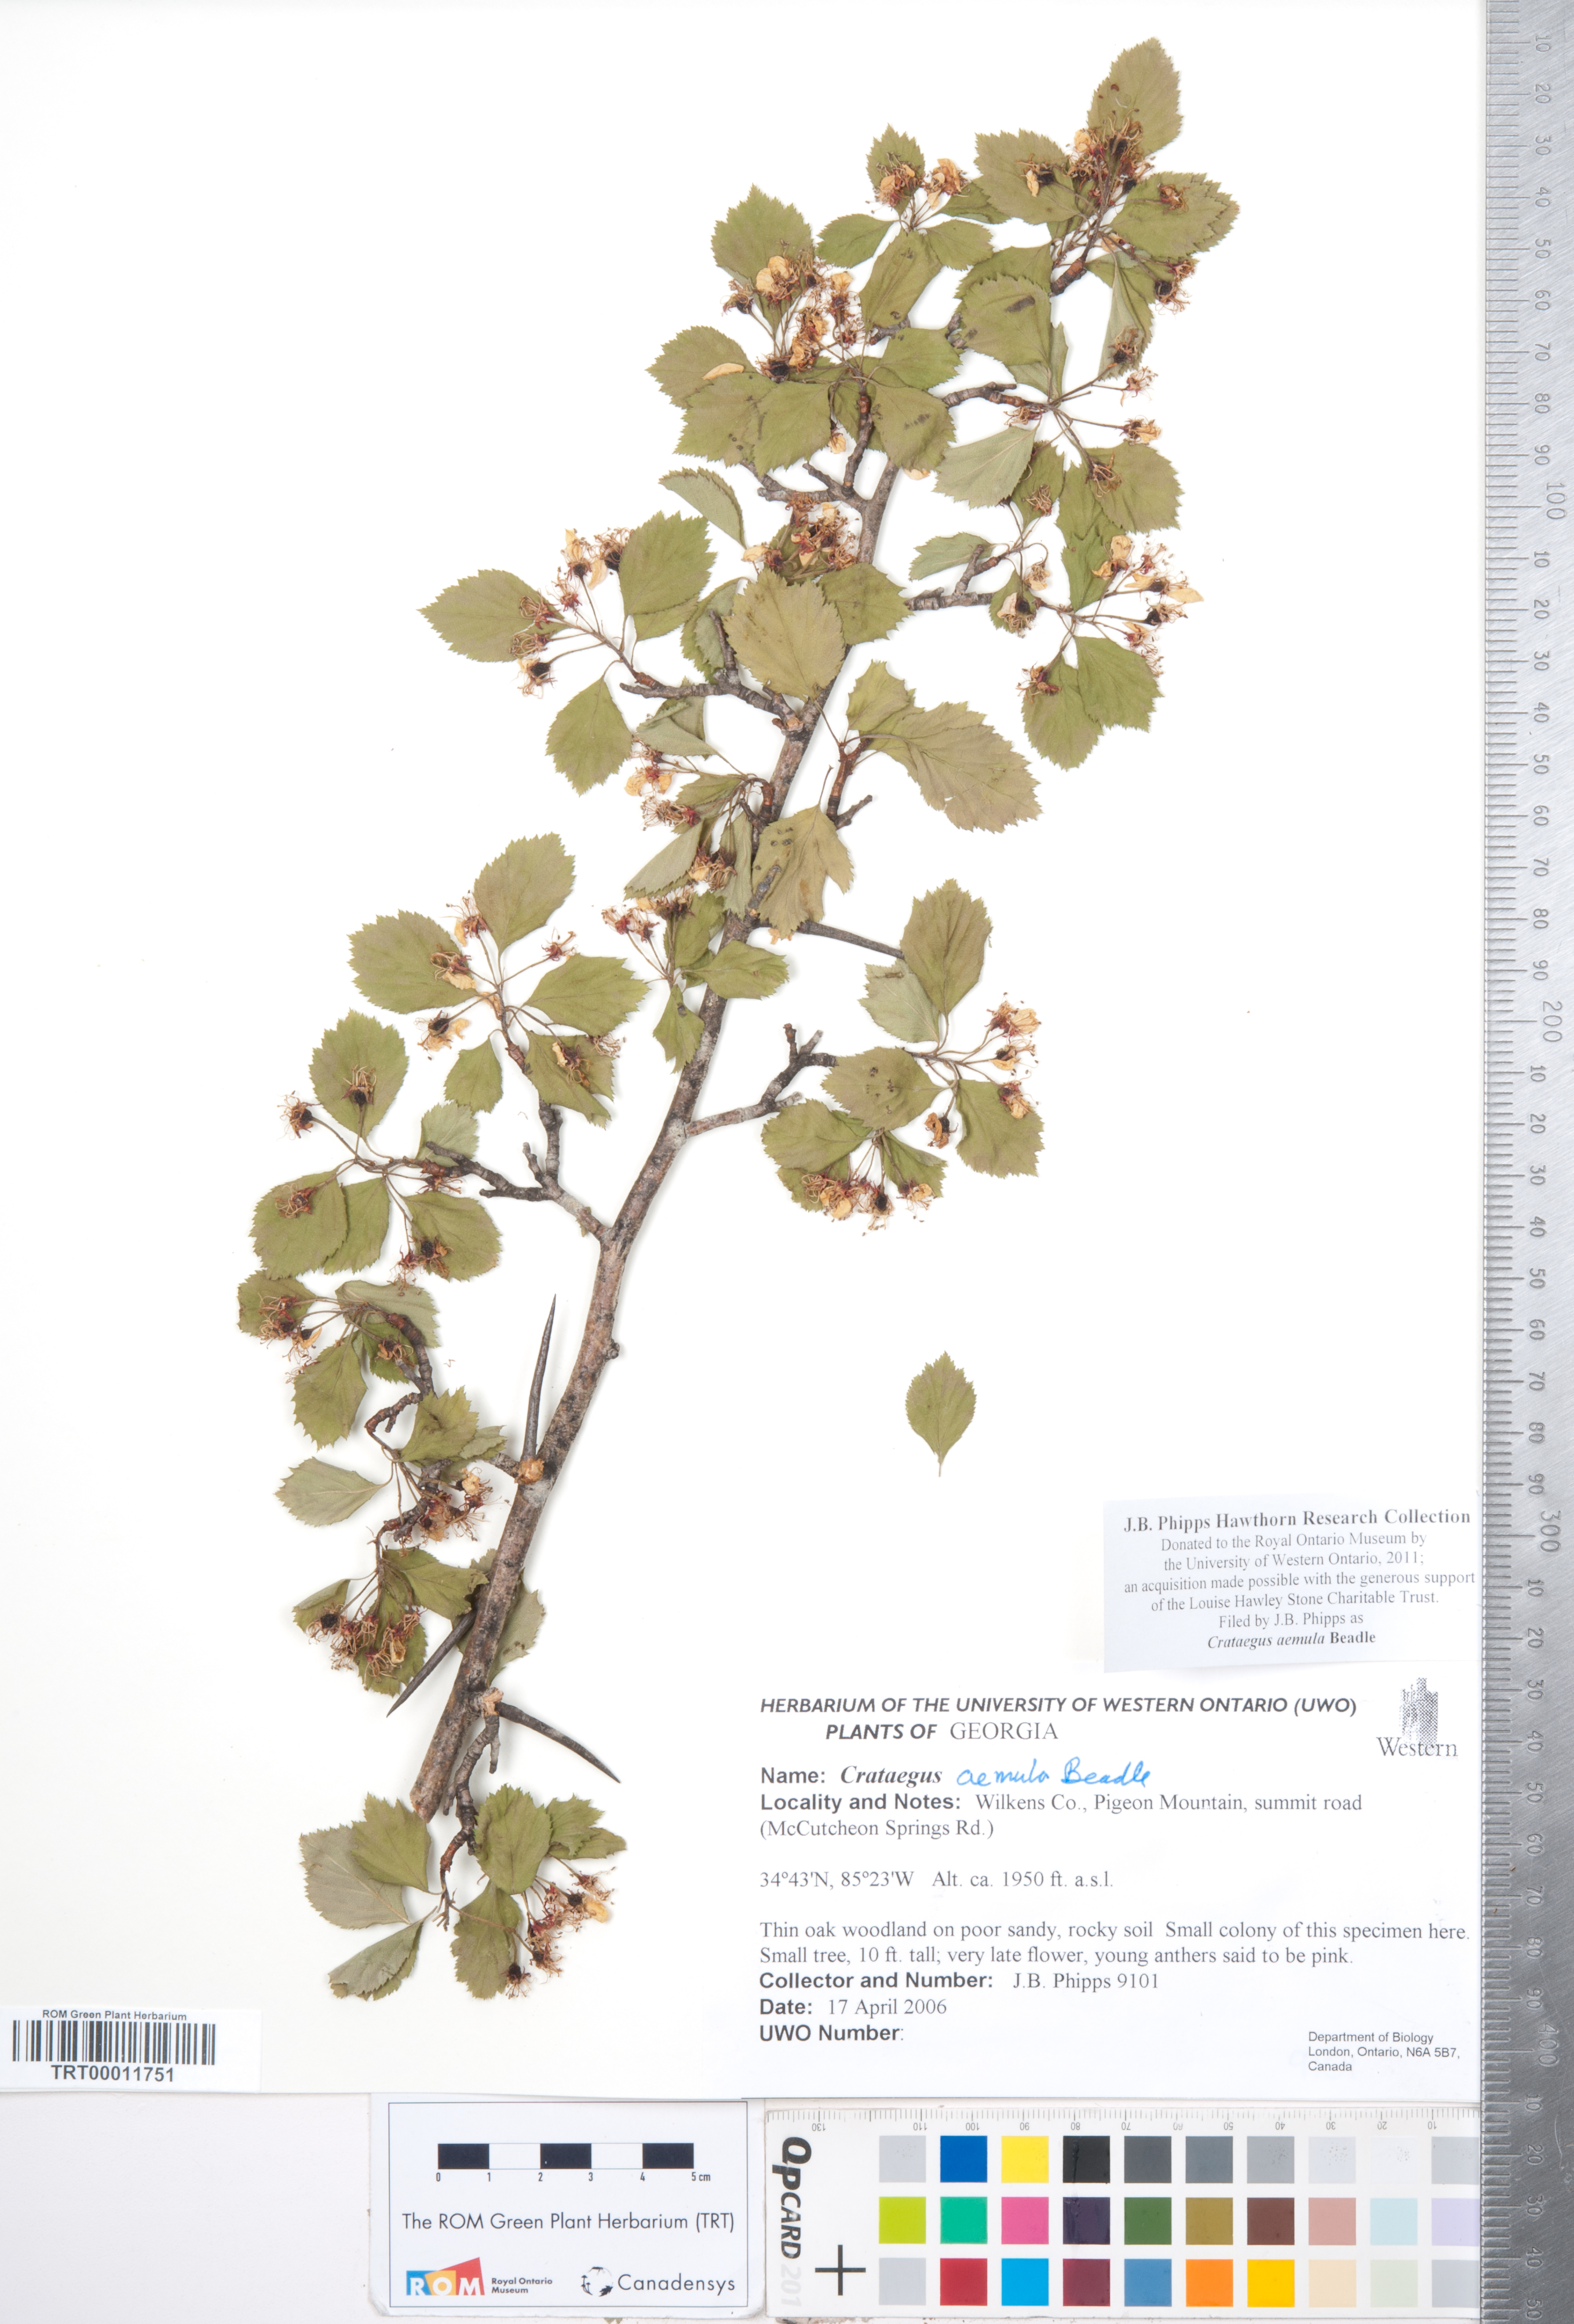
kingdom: Plantae
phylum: Tracheophyta
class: Magnoliopsida
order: Rosales
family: Rosaceae
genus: Crataegus
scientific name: Crataegus iracunda
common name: Stolon-bearing hawthorn
